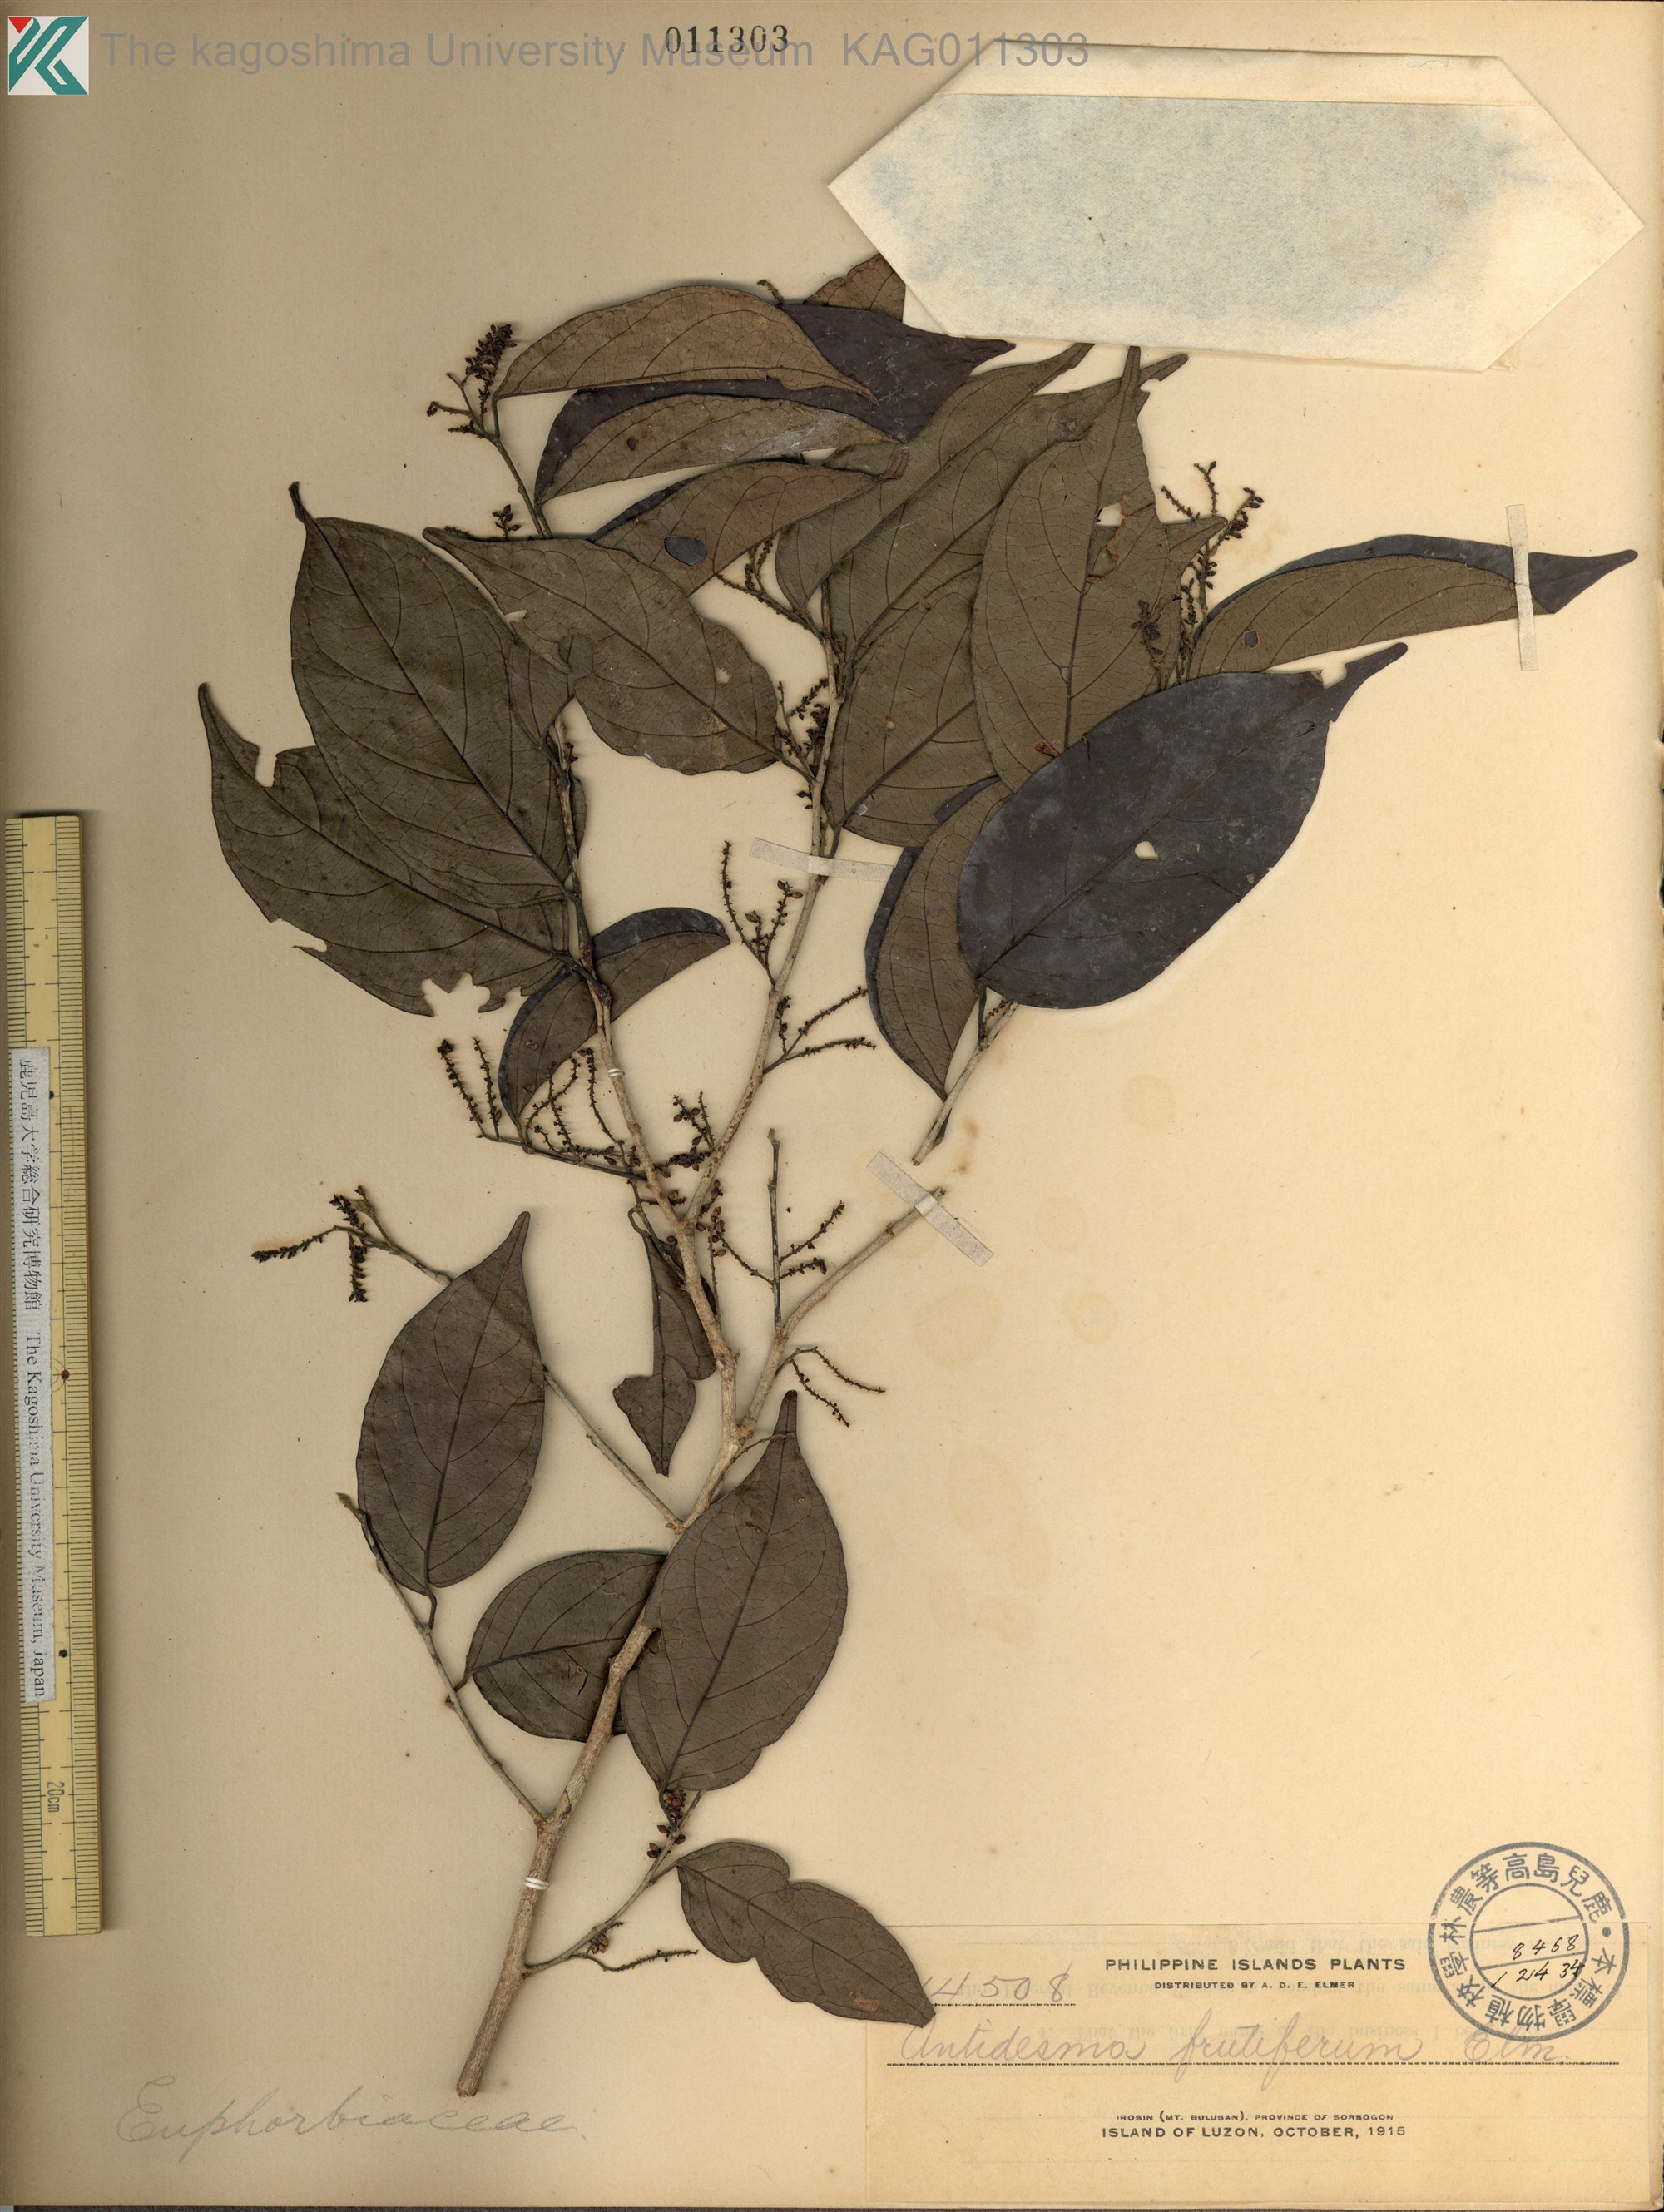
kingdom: Plantae
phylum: Tracheophyta
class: Magnoliopsida
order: Malpighiales
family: Phyllanthaceae
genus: Antidesma
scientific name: Antidesma microcarpum
